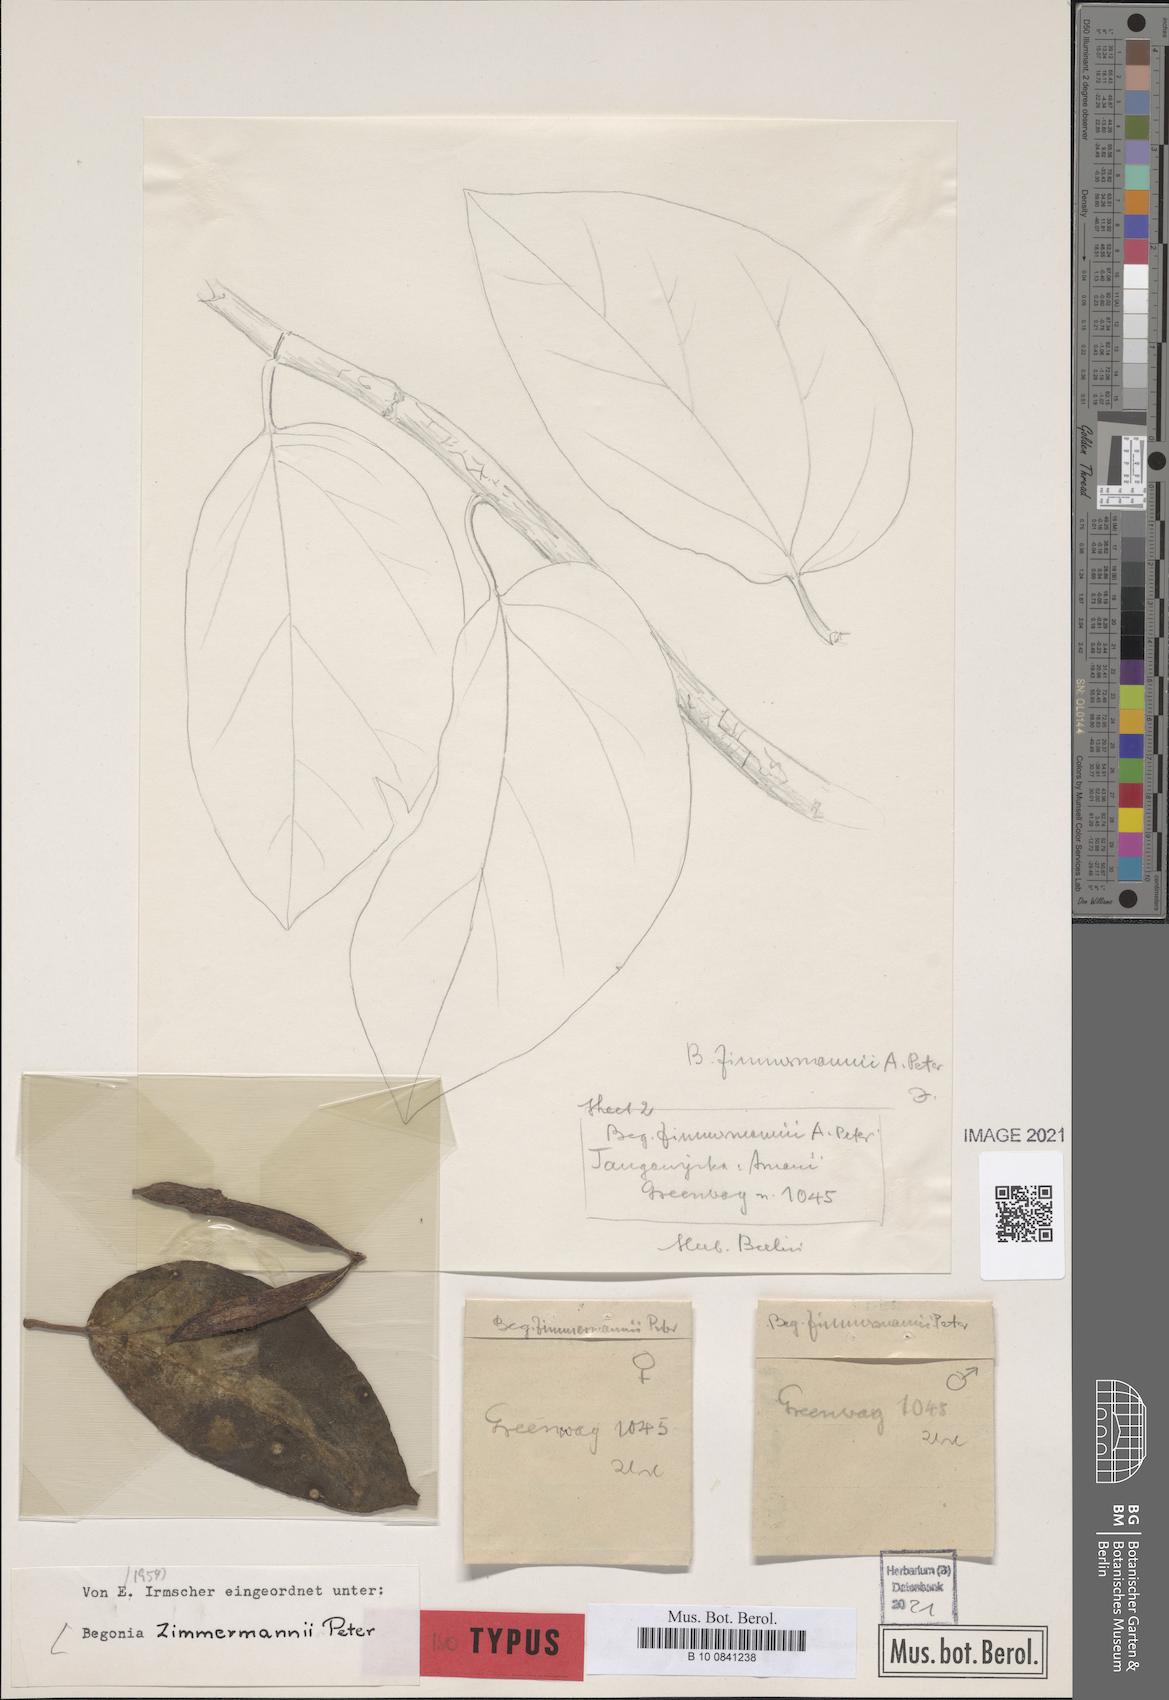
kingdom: Plantae
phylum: Tracheophyta
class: Magnoliopsida
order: Cucurbitales
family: Begoniaceae
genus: Begonia
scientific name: Begonia zimmermannii
